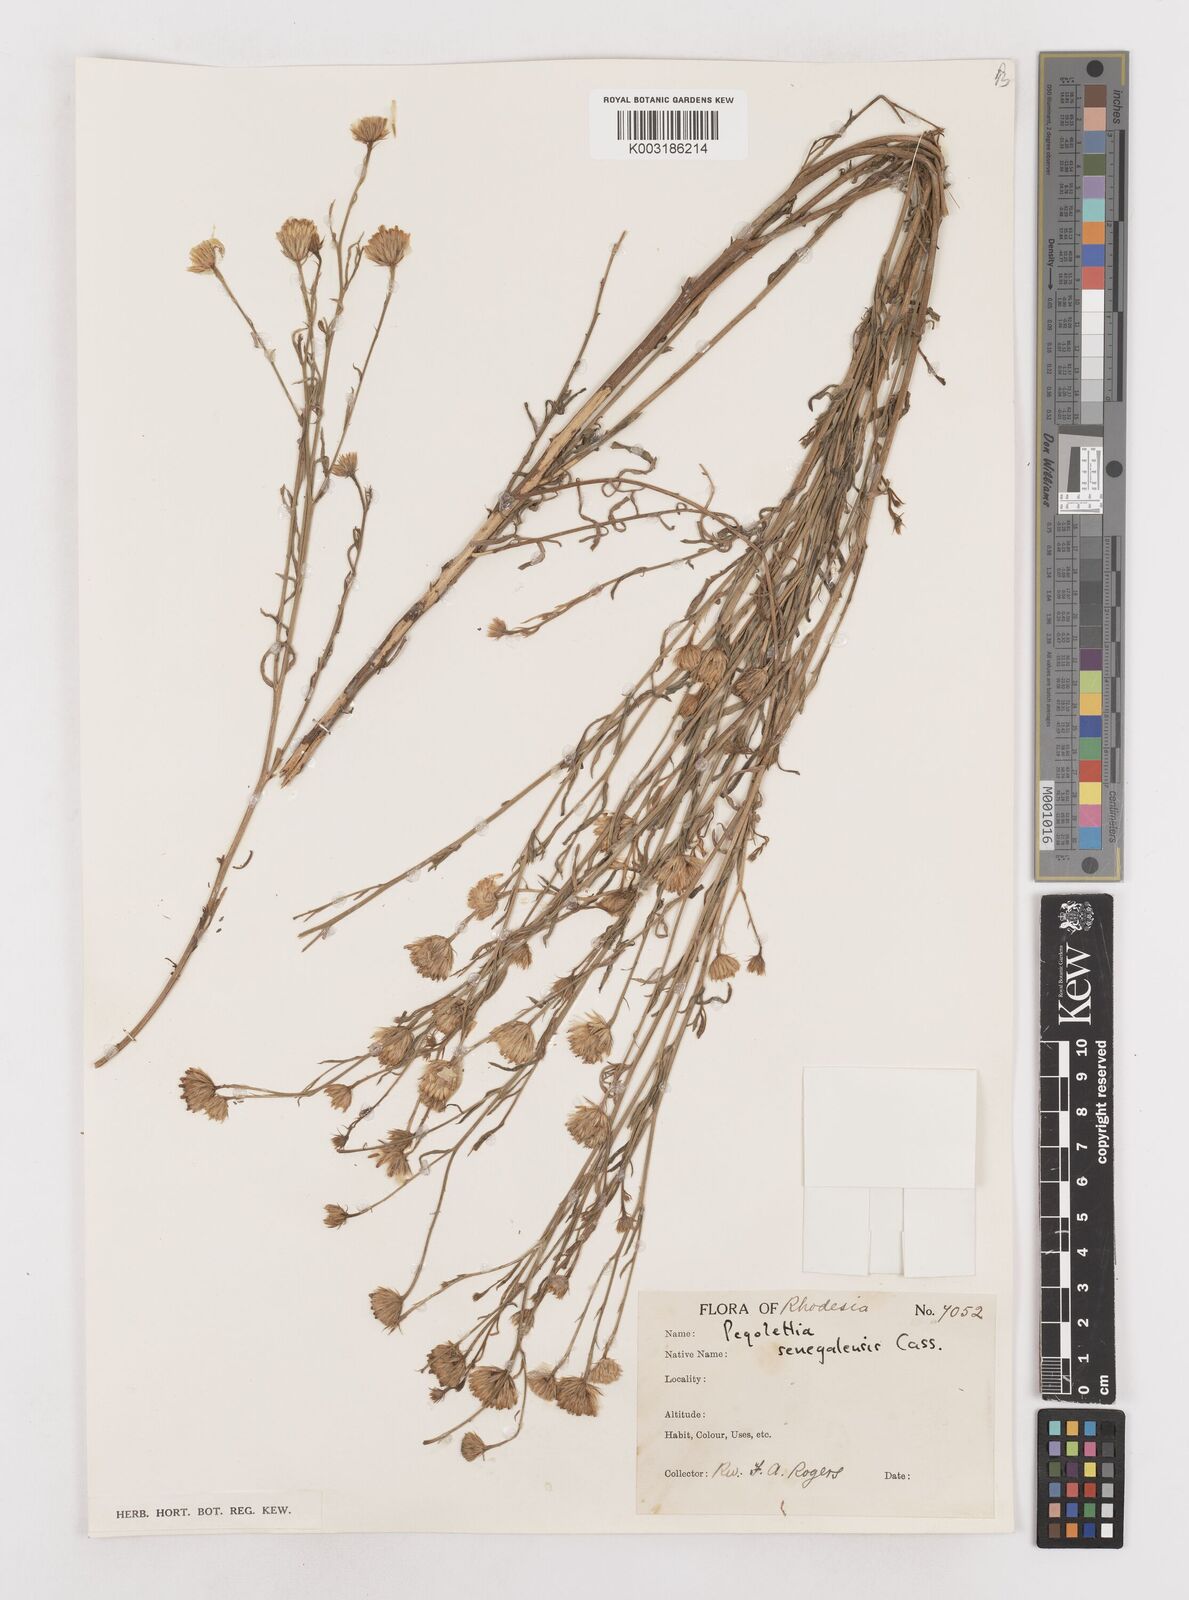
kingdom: Plantae
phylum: Tracheophyta
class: Magnoliopsida
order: Asterales
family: Asteraceae
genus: Pegolettia
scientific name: Pegolettia senegalensis
